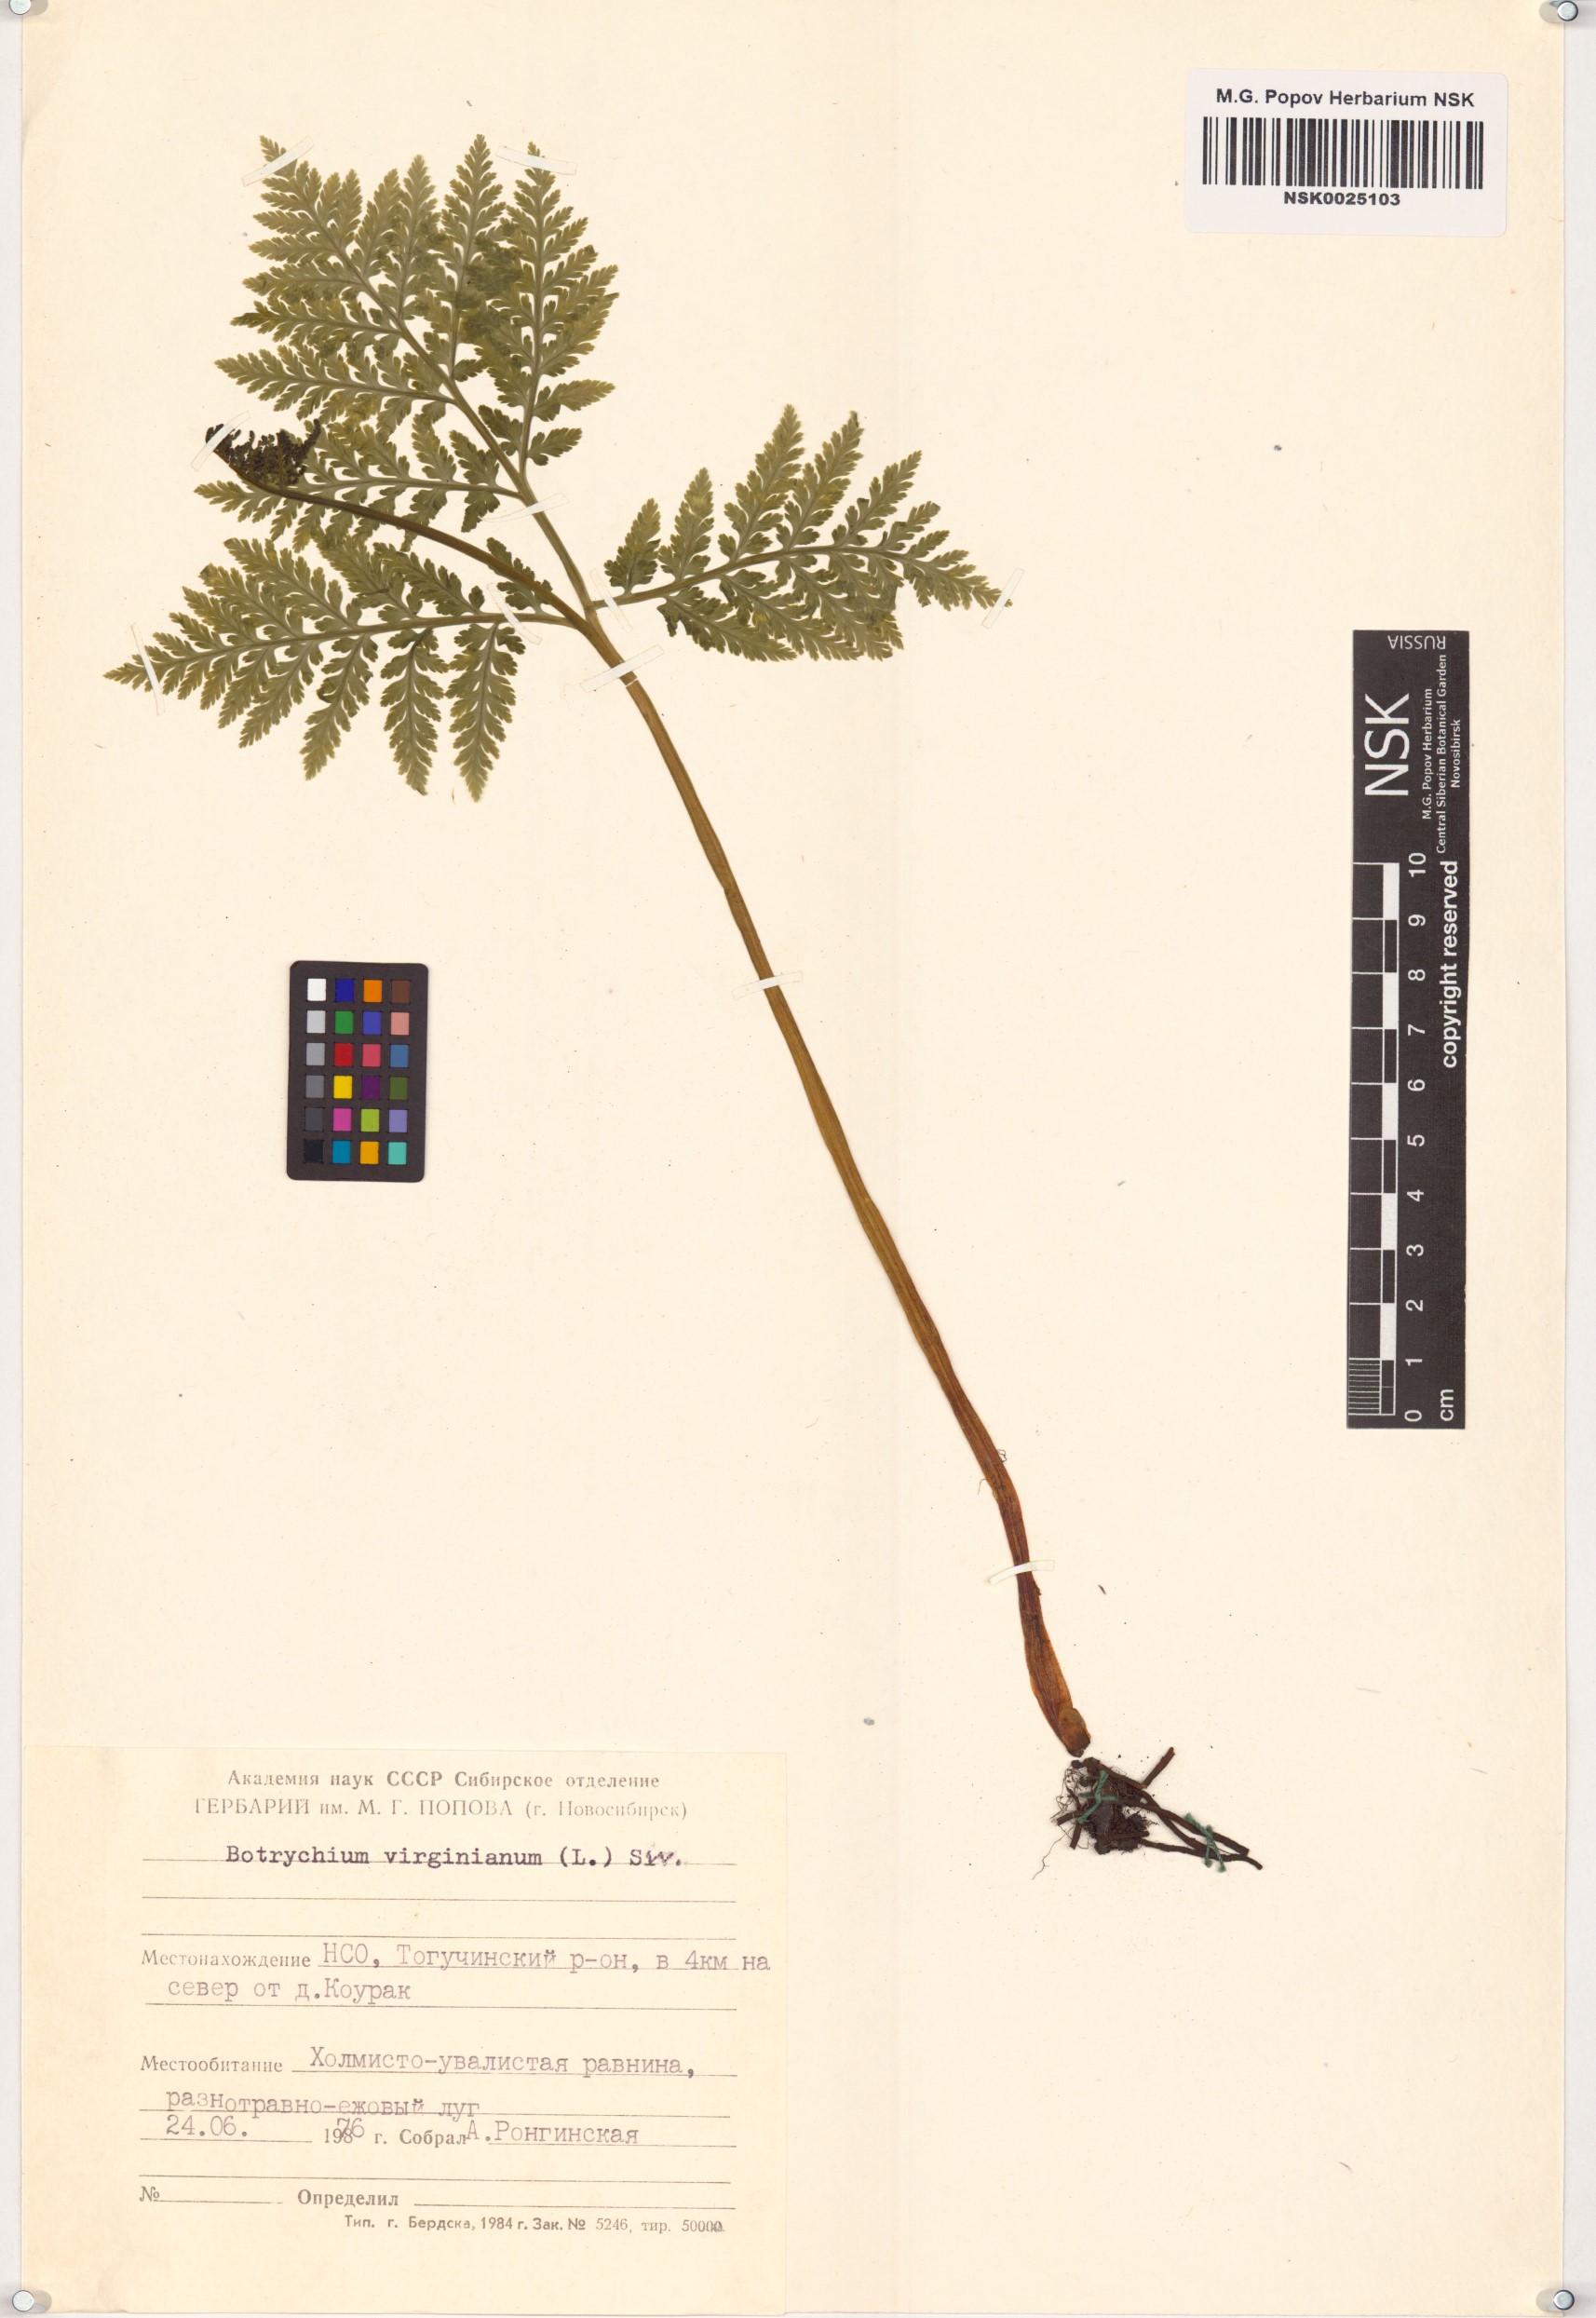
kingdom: Plantae
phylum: Tracheophyta
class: Polypodiopsida
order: Ophioglossales
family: Ophioglossaceae
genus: Botrypus
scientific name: Botrypus virginianus
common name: Common grapefern
